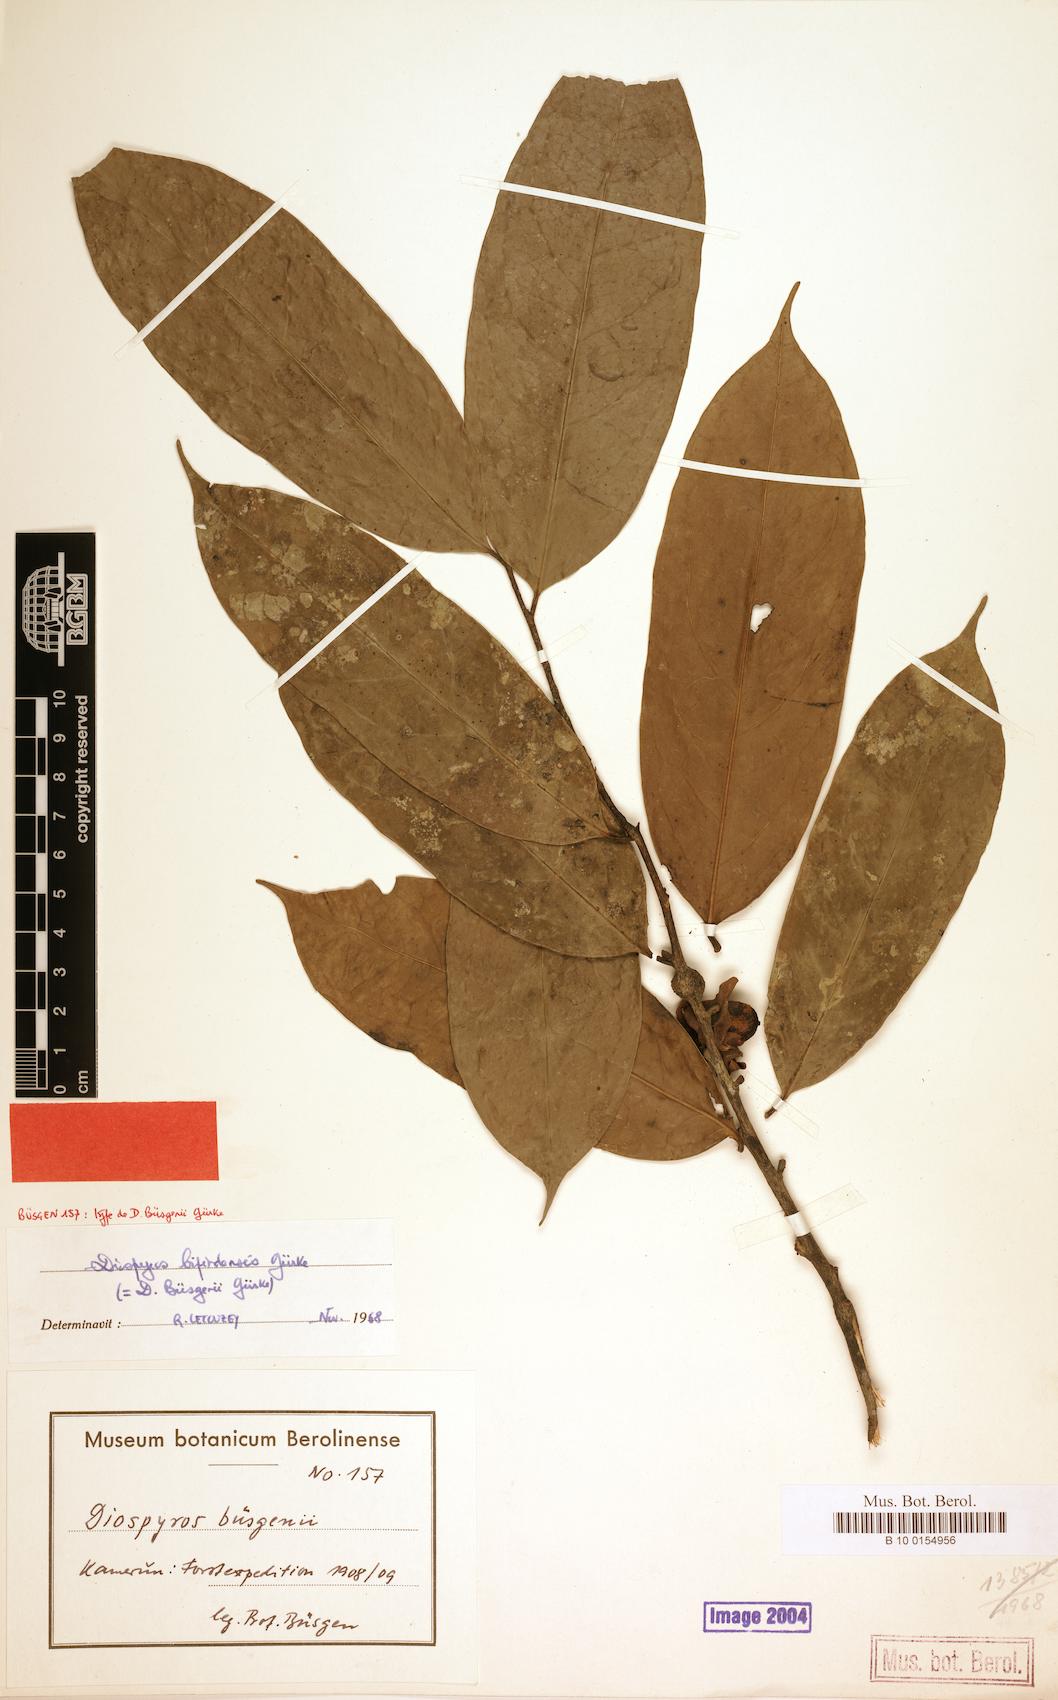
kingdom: Plantae
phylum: Tracheophyta
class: Magnoliopsida
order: Ericales
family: Ebenaceae
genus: Diospyros
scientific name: Diospyros bipindensis
